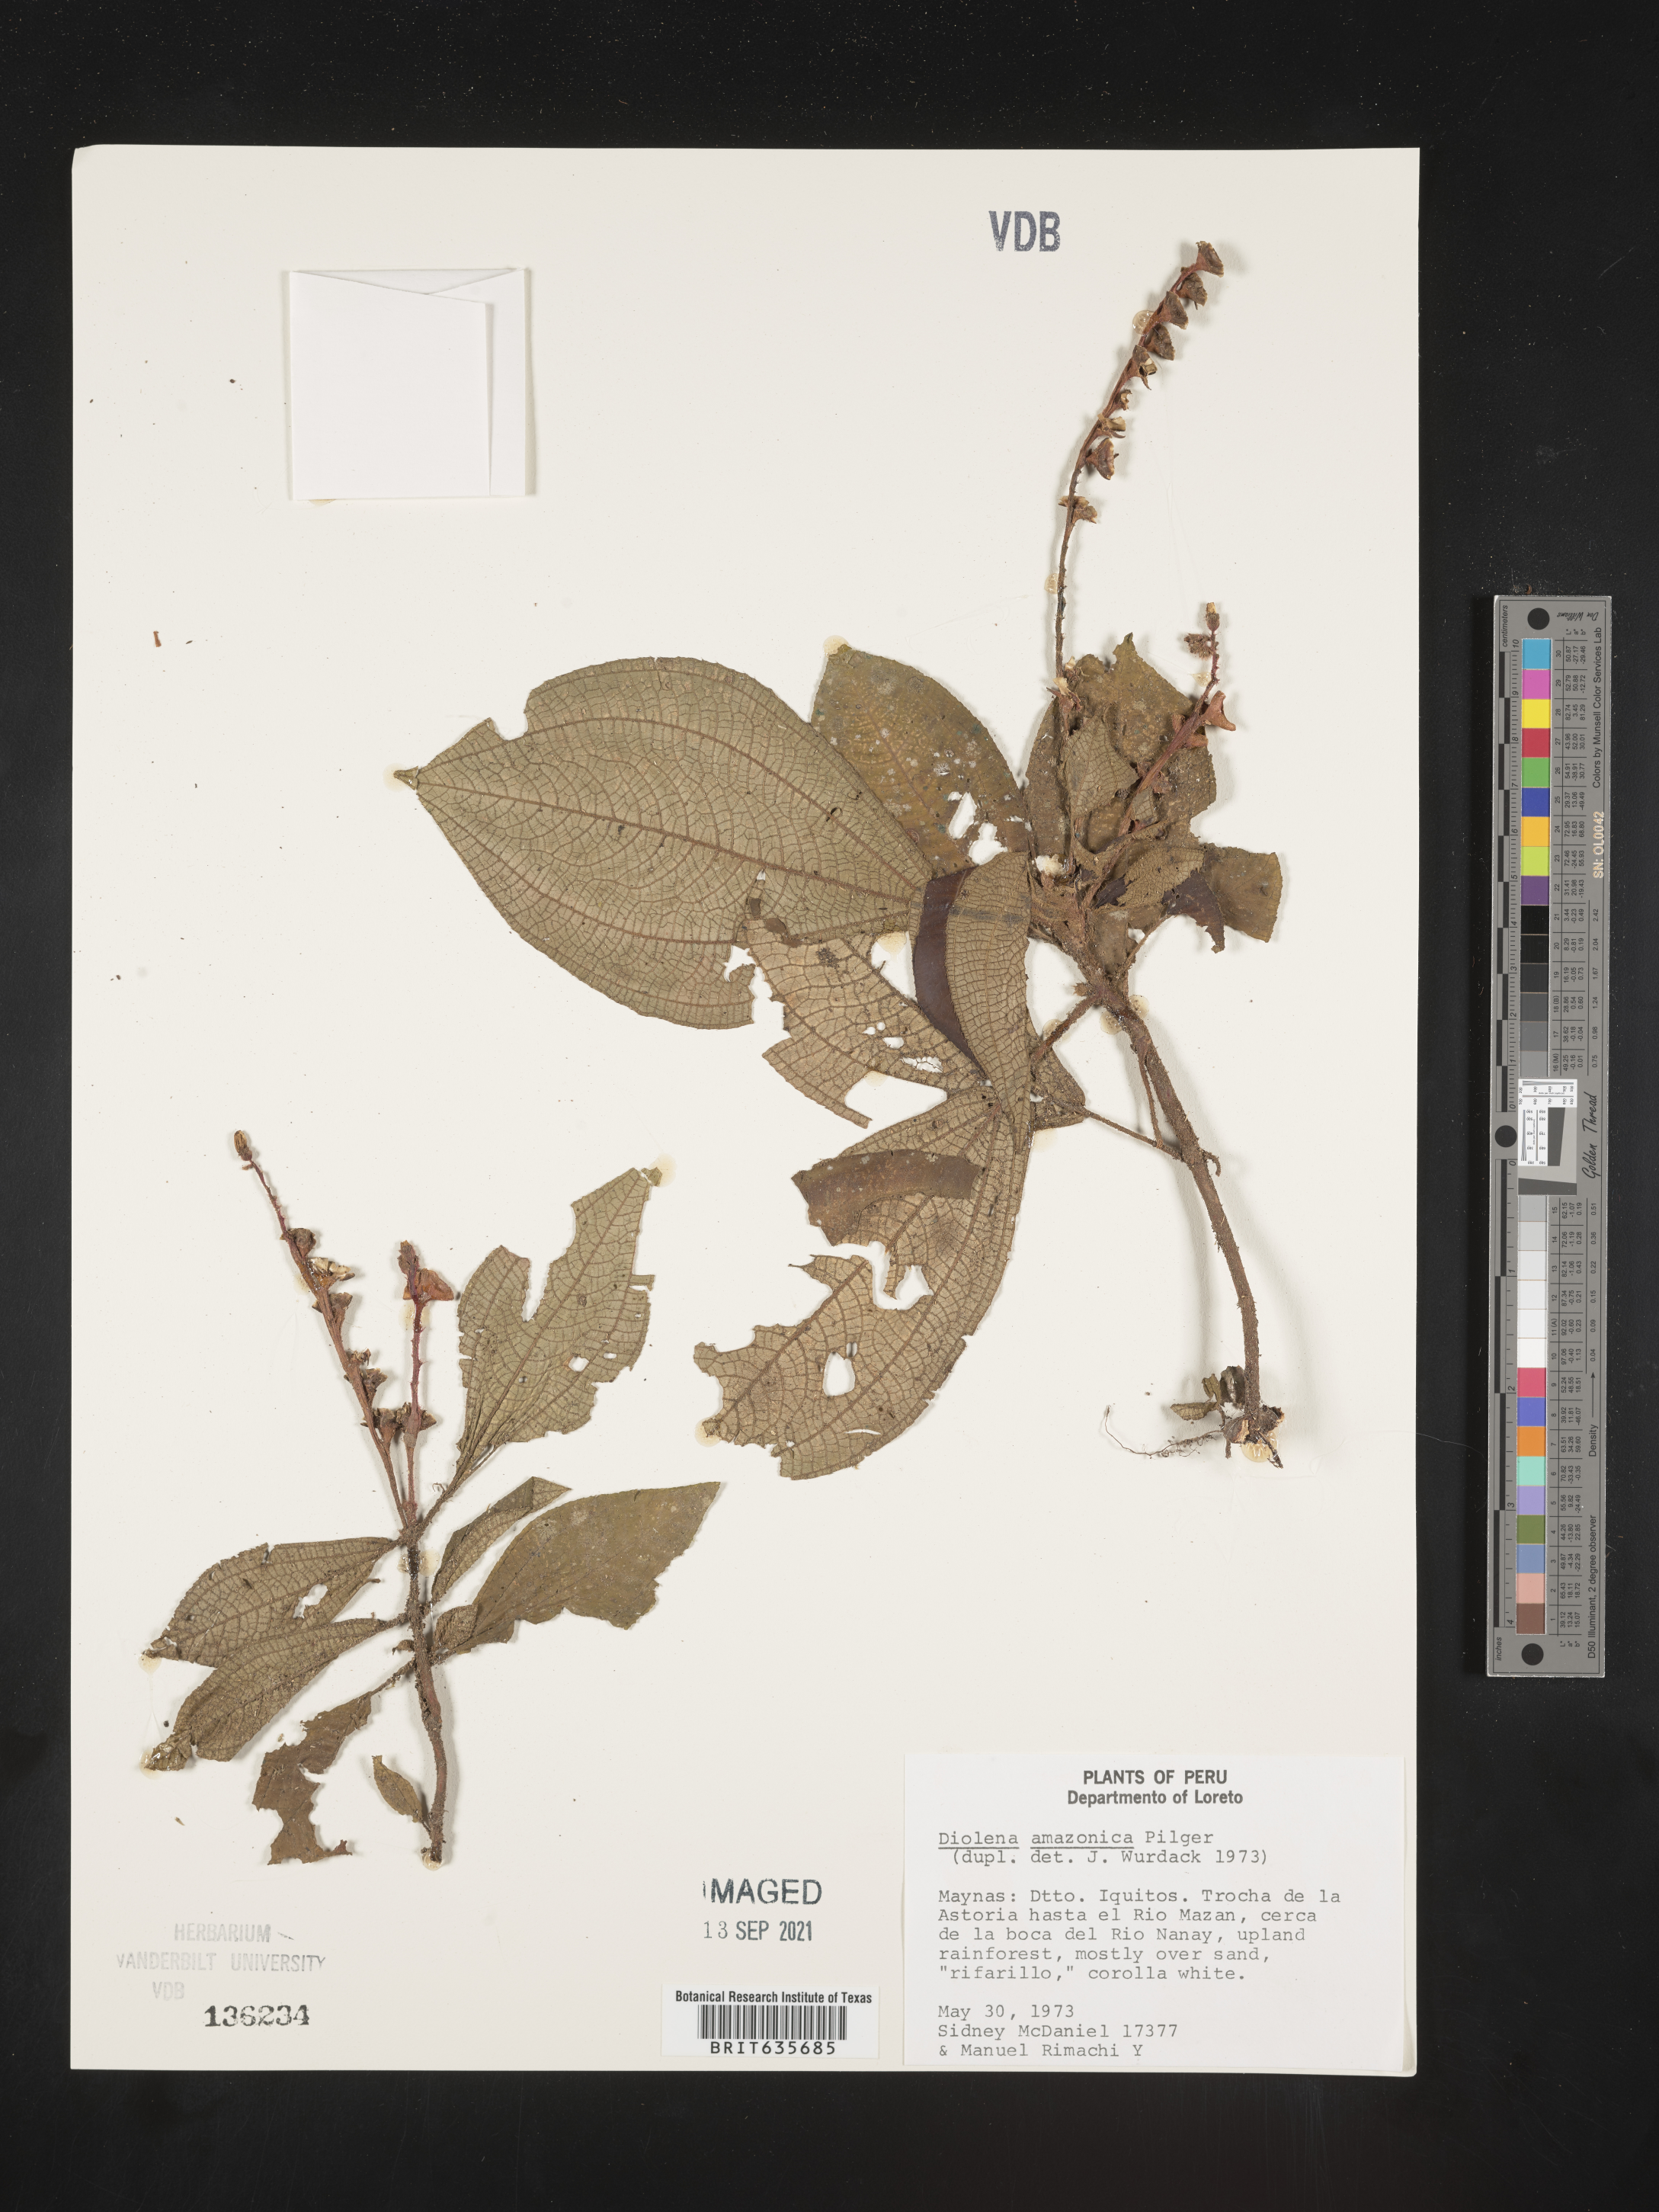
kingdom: Plantae
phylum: Tracheophyta
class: Magnoliopsida
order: Myrtales
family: Melastomataceae
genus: Triolena
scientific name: Triolena amazonica
